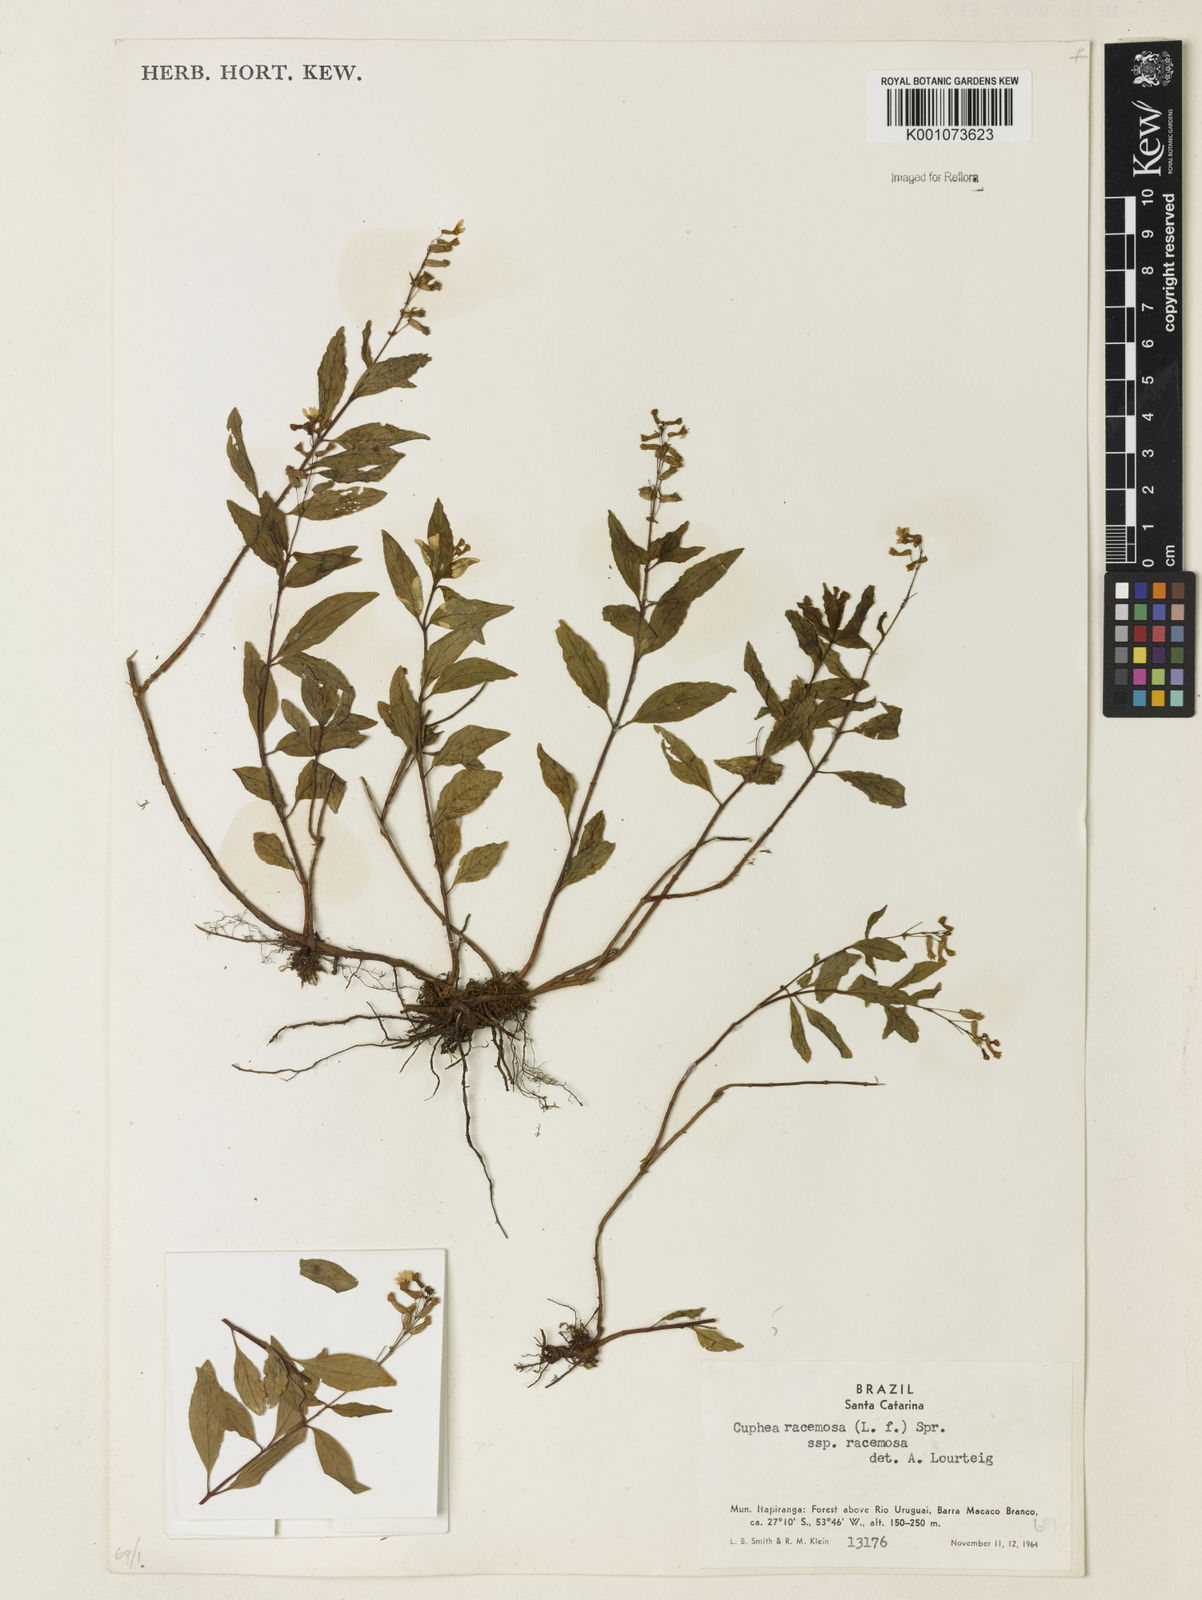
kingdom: Plantae
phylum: Tracheophyta
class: Magnoliopsida
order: Myrtales
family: Lythraceae
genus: Cuphea
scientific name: Cuphea racemosa
